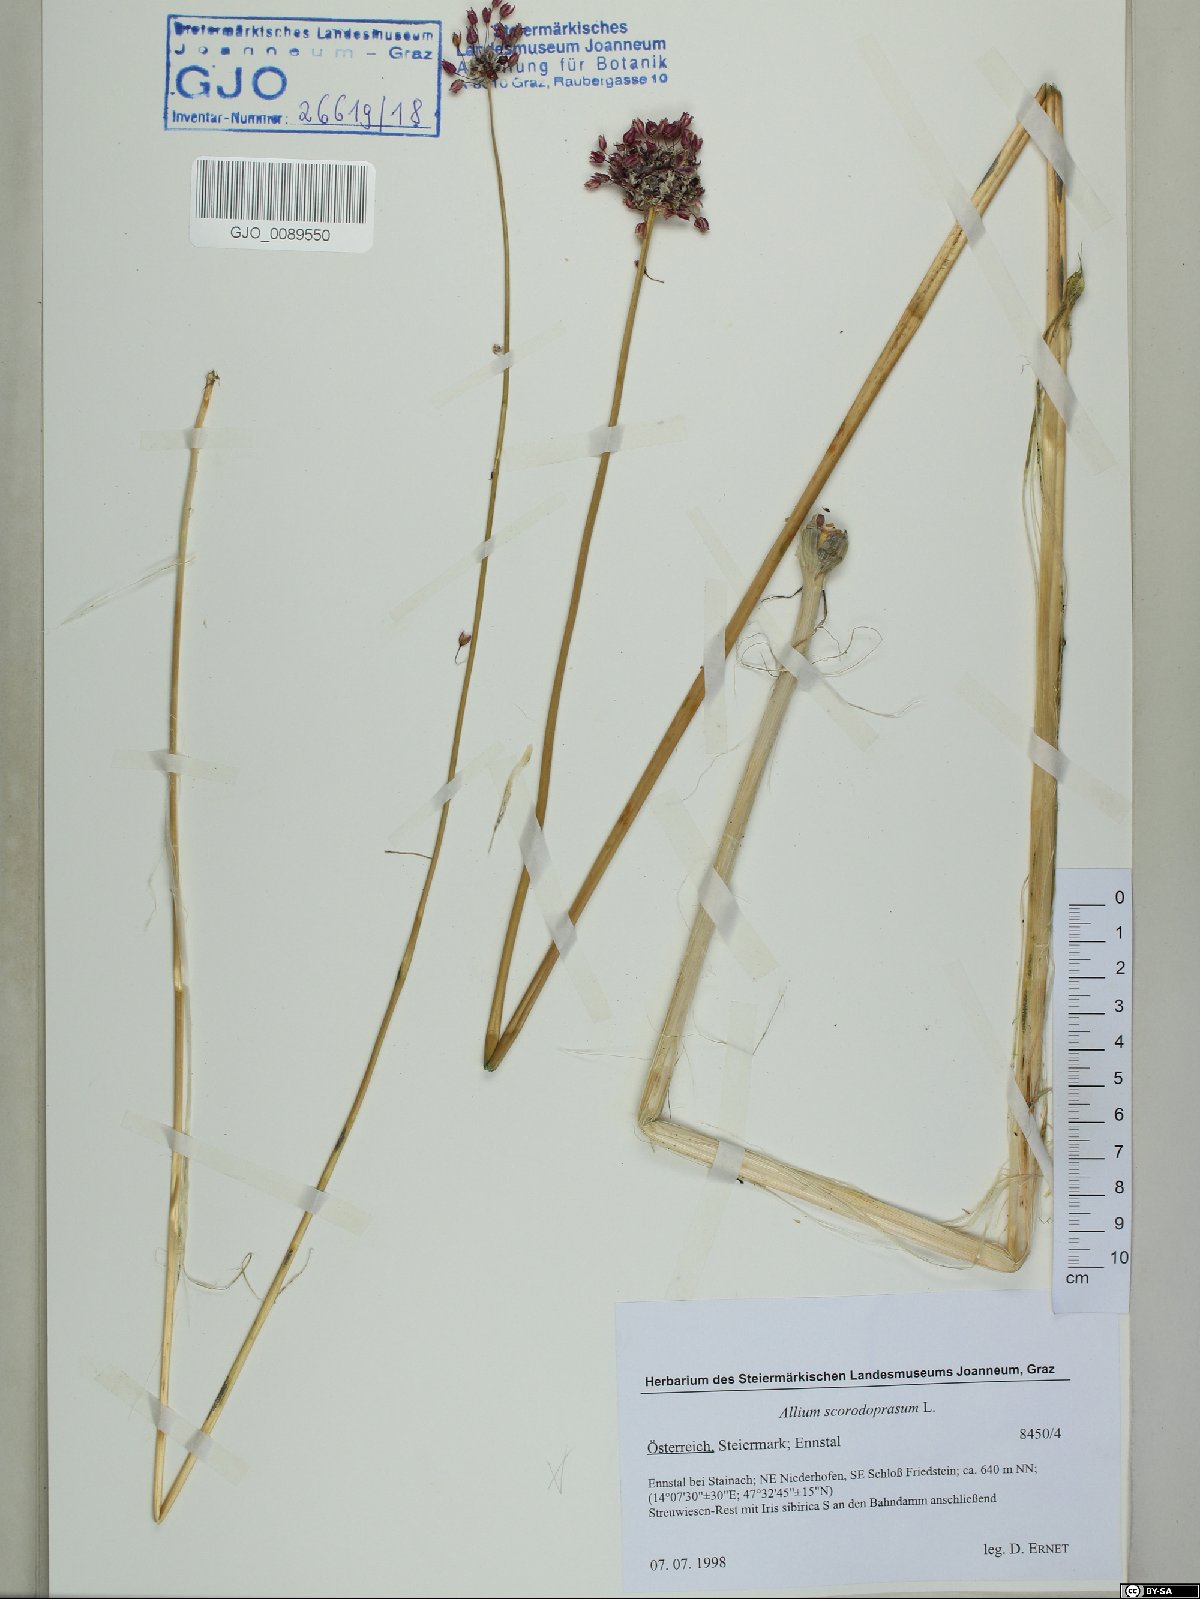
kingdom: Plantae
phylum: Tracheophyta
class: Liliopsida
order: Asparagales
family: Amaryllidaceae
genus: Allium
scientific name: Allium scorodoprasum
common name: Sand leek
